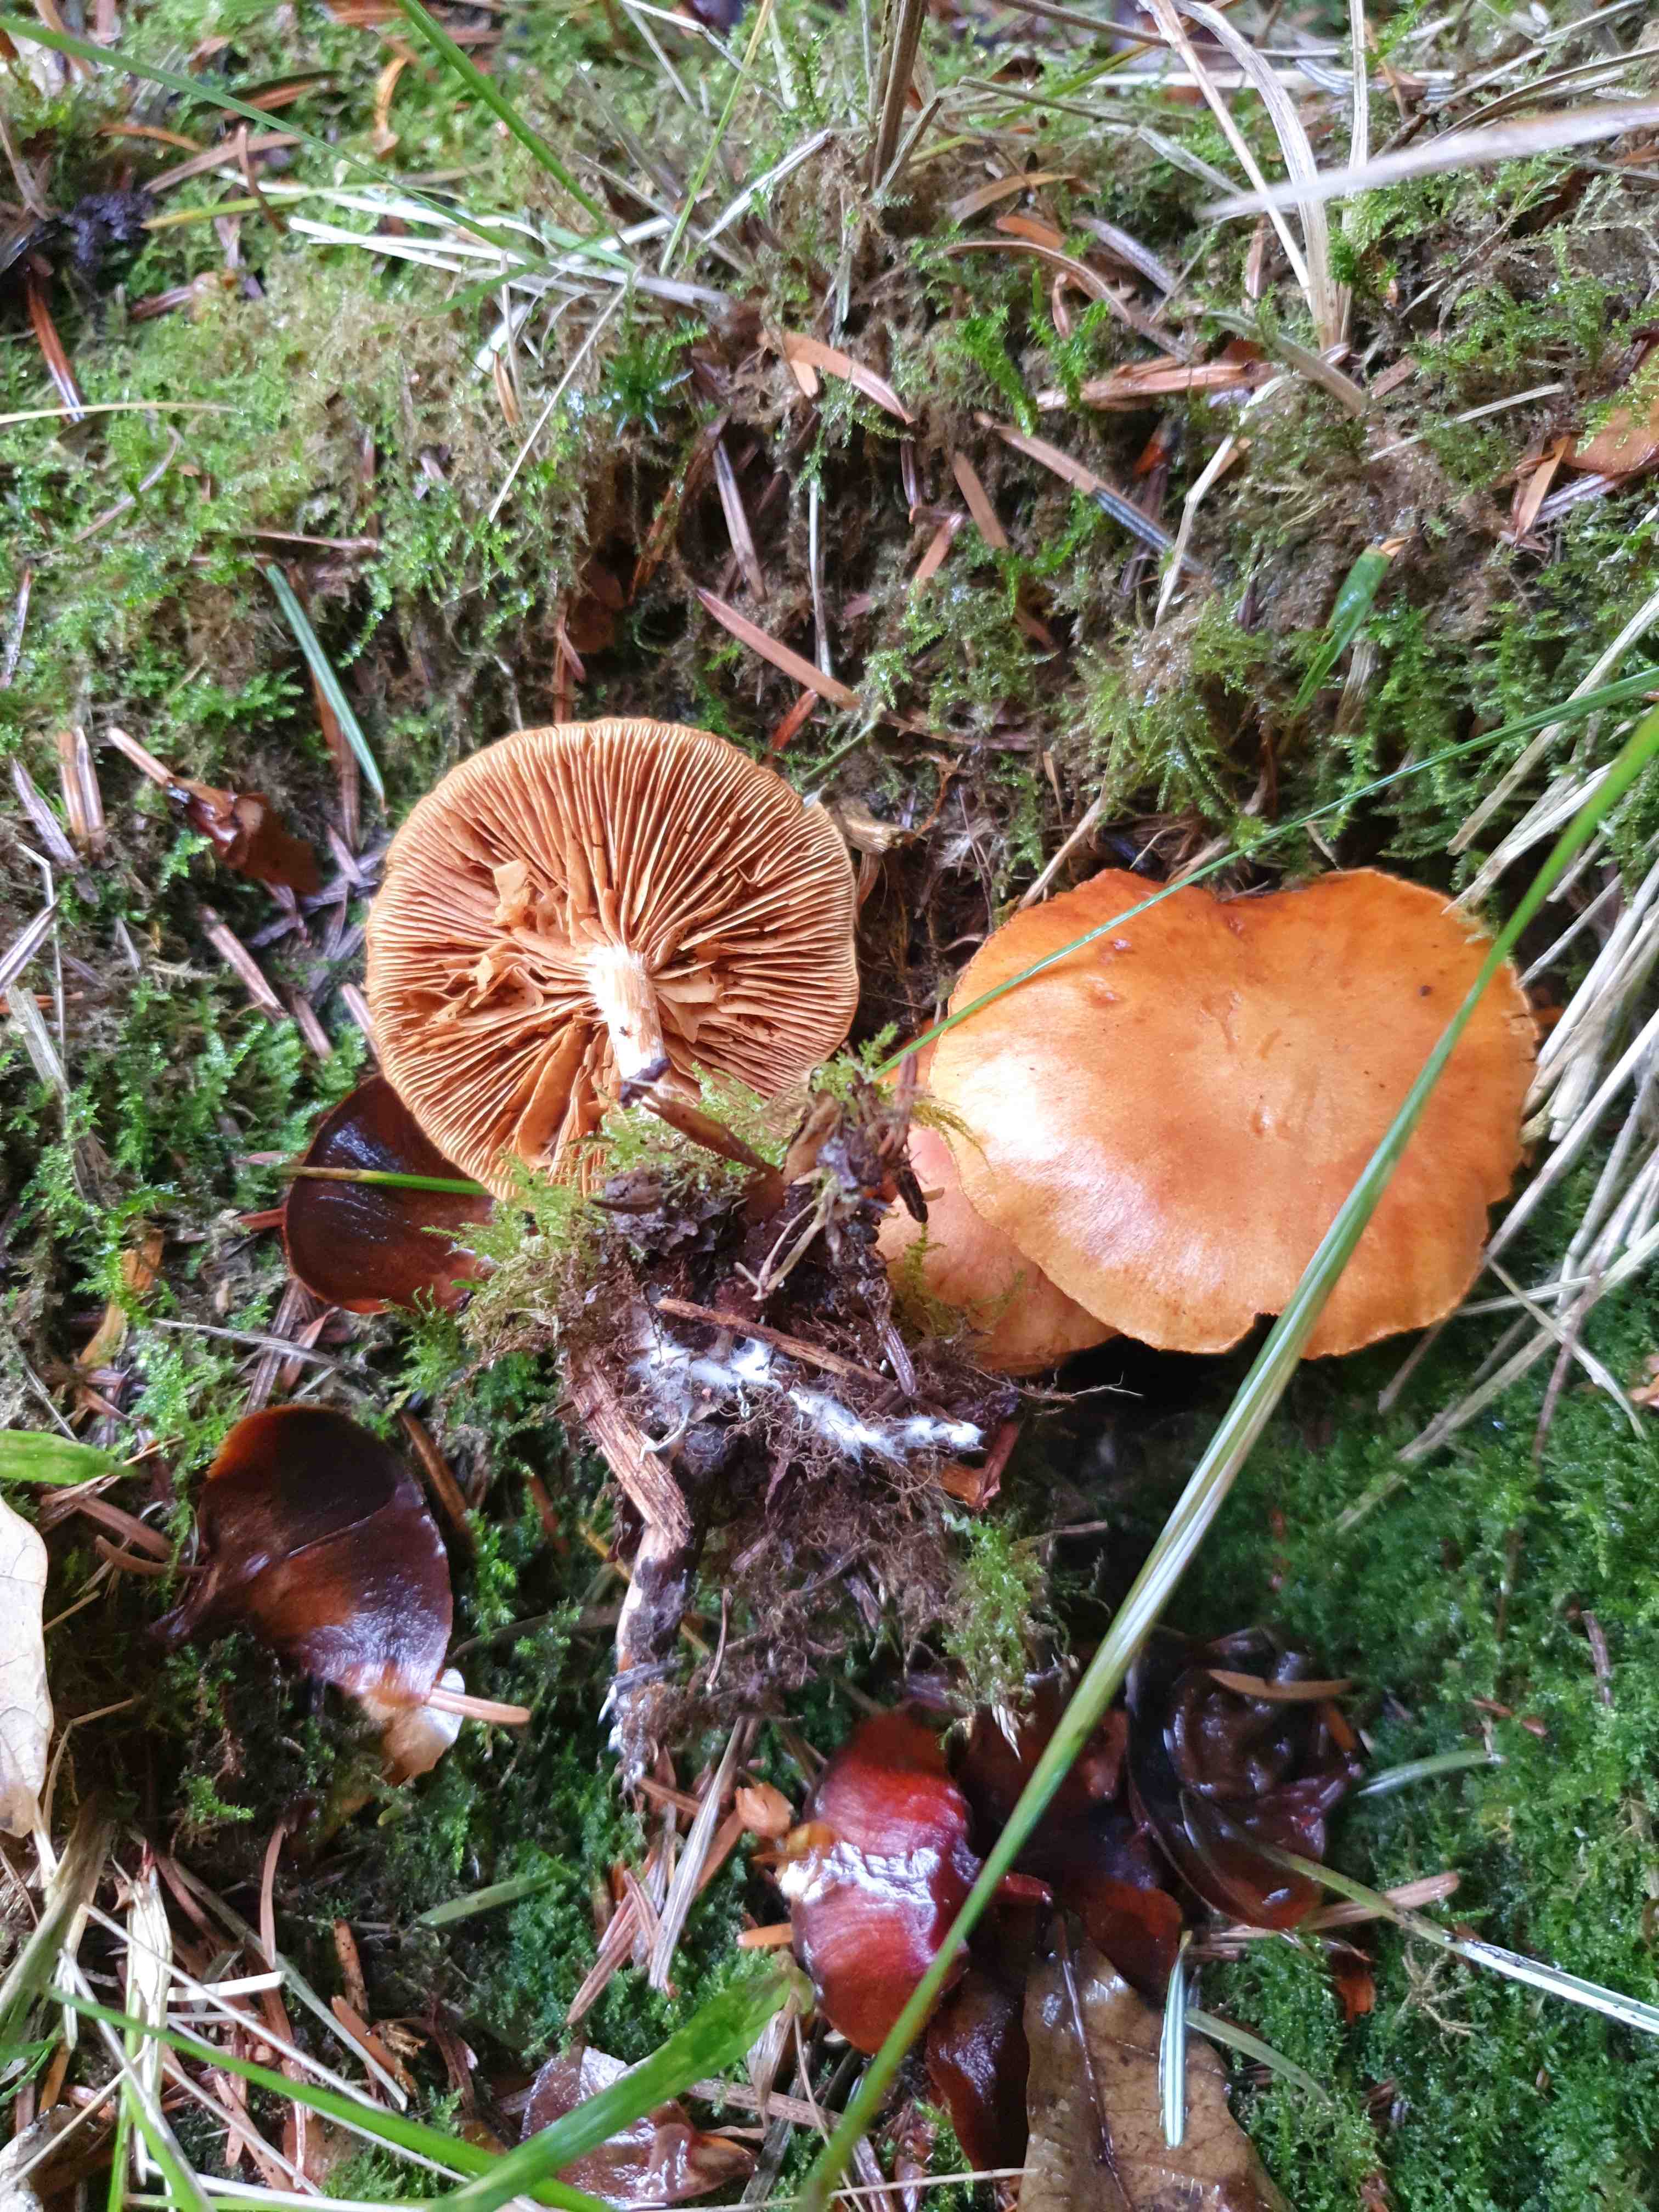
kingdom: Fungi
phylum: Basidiomycota
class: Agaricomycetes
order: Agaricales
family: Hymenogastraceae
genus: Gymnopilus
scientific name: Gymnopilus penetrans
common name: plettet flammehat
